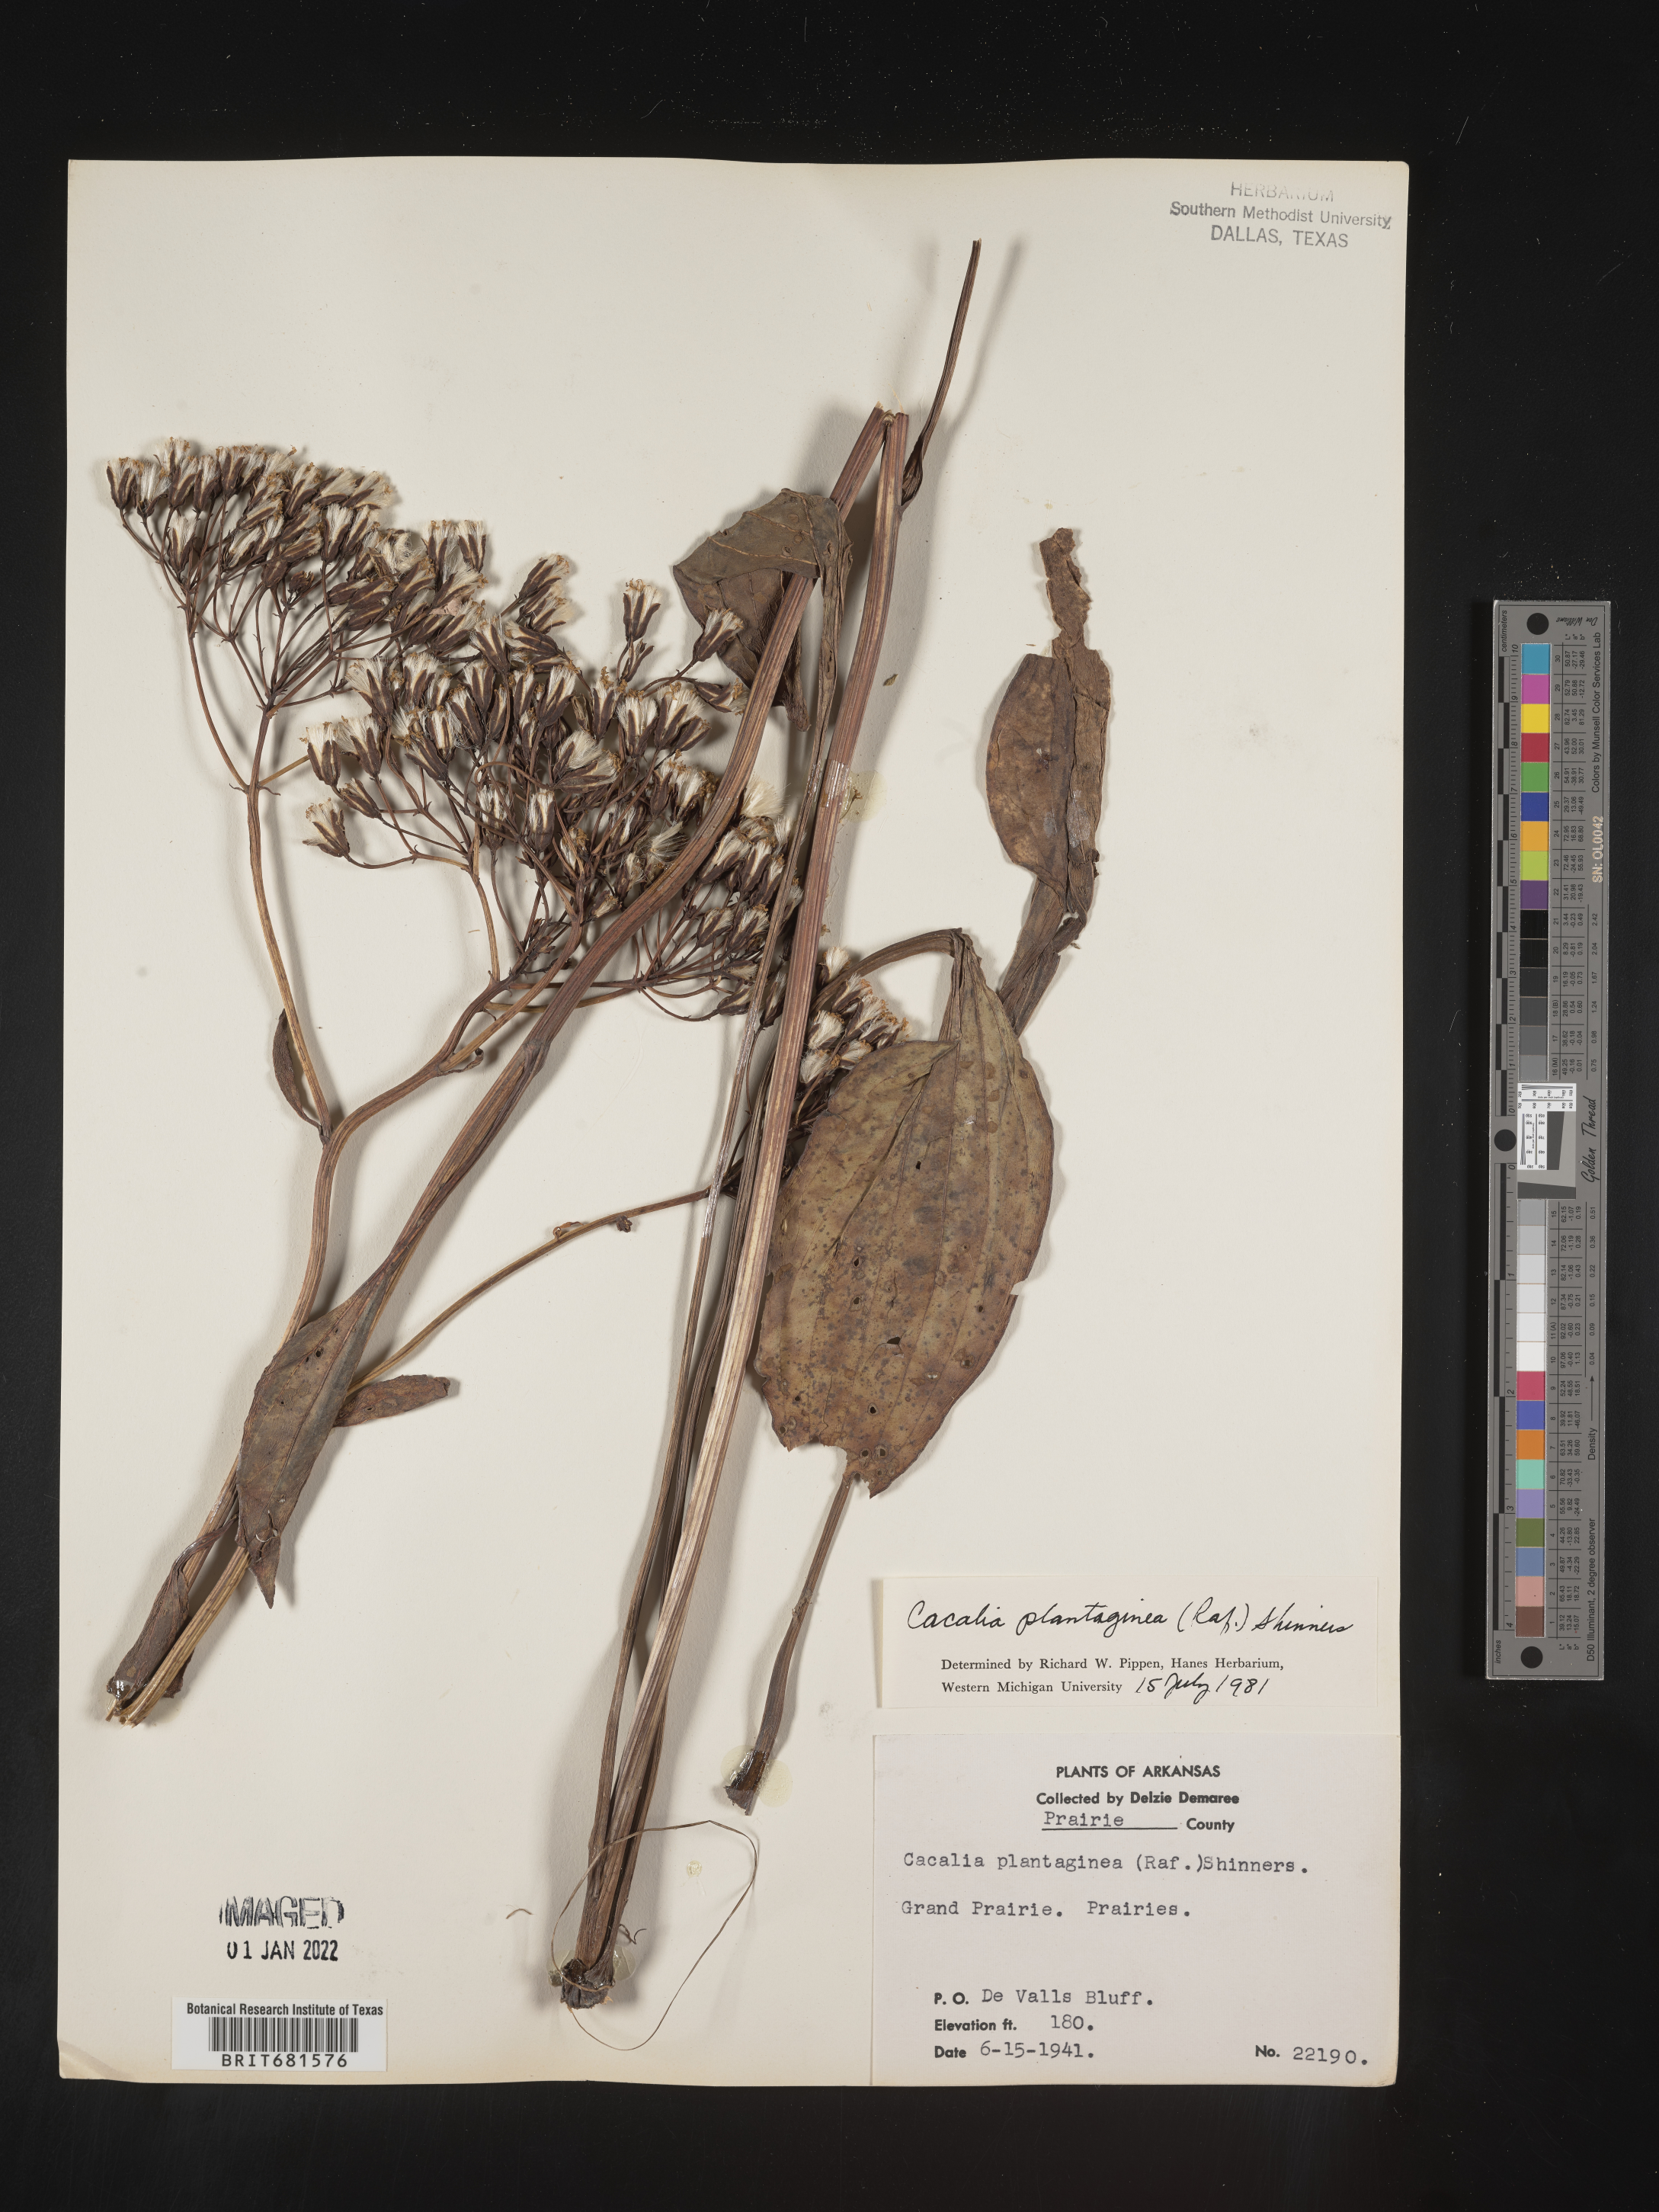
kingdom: Plantae
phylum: Tracheophyta
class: Magnoliopsida
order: Asterales
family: Asteraceae
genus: Arnoglossum
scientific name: Arnoglossum plantagineum
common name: Groove-stemmed indian-plantain
